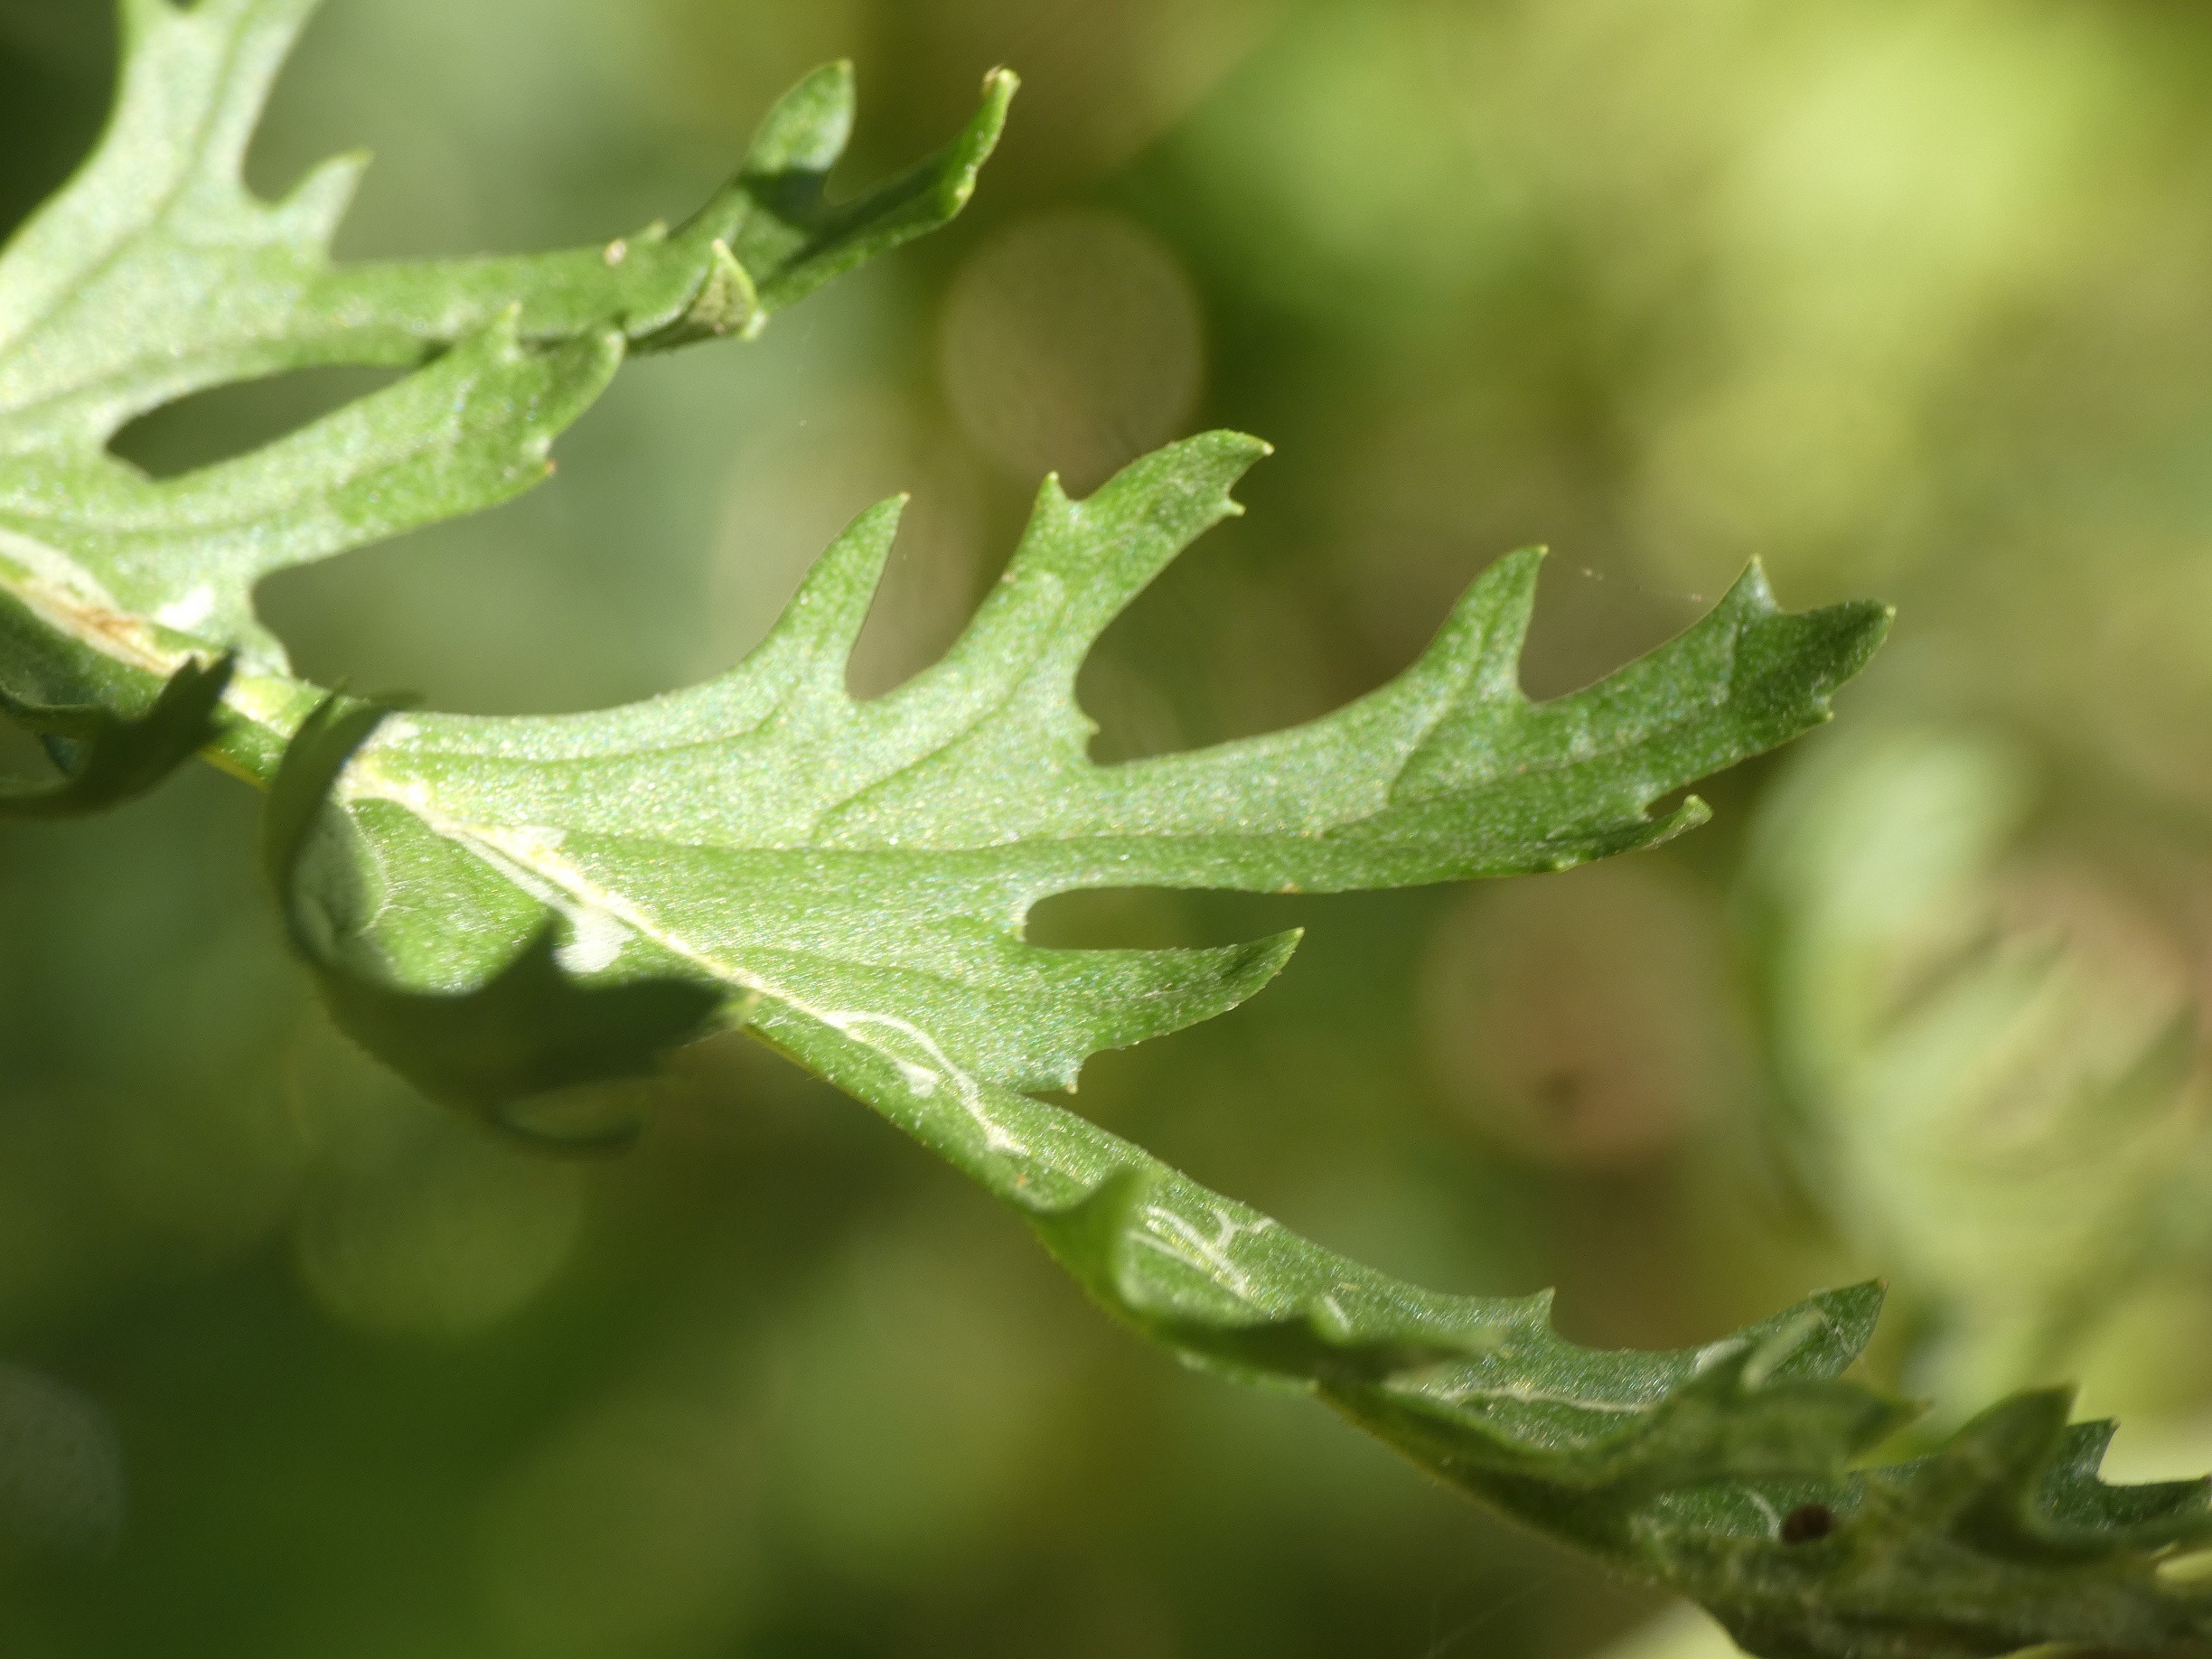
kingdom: Plantae
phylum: Tracheophyta
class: Magnoliopsida
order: Asterales
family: Asteraceae
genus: Jacobaea
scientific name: Jacobaea vulgaris
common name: Eng-brandbæger
